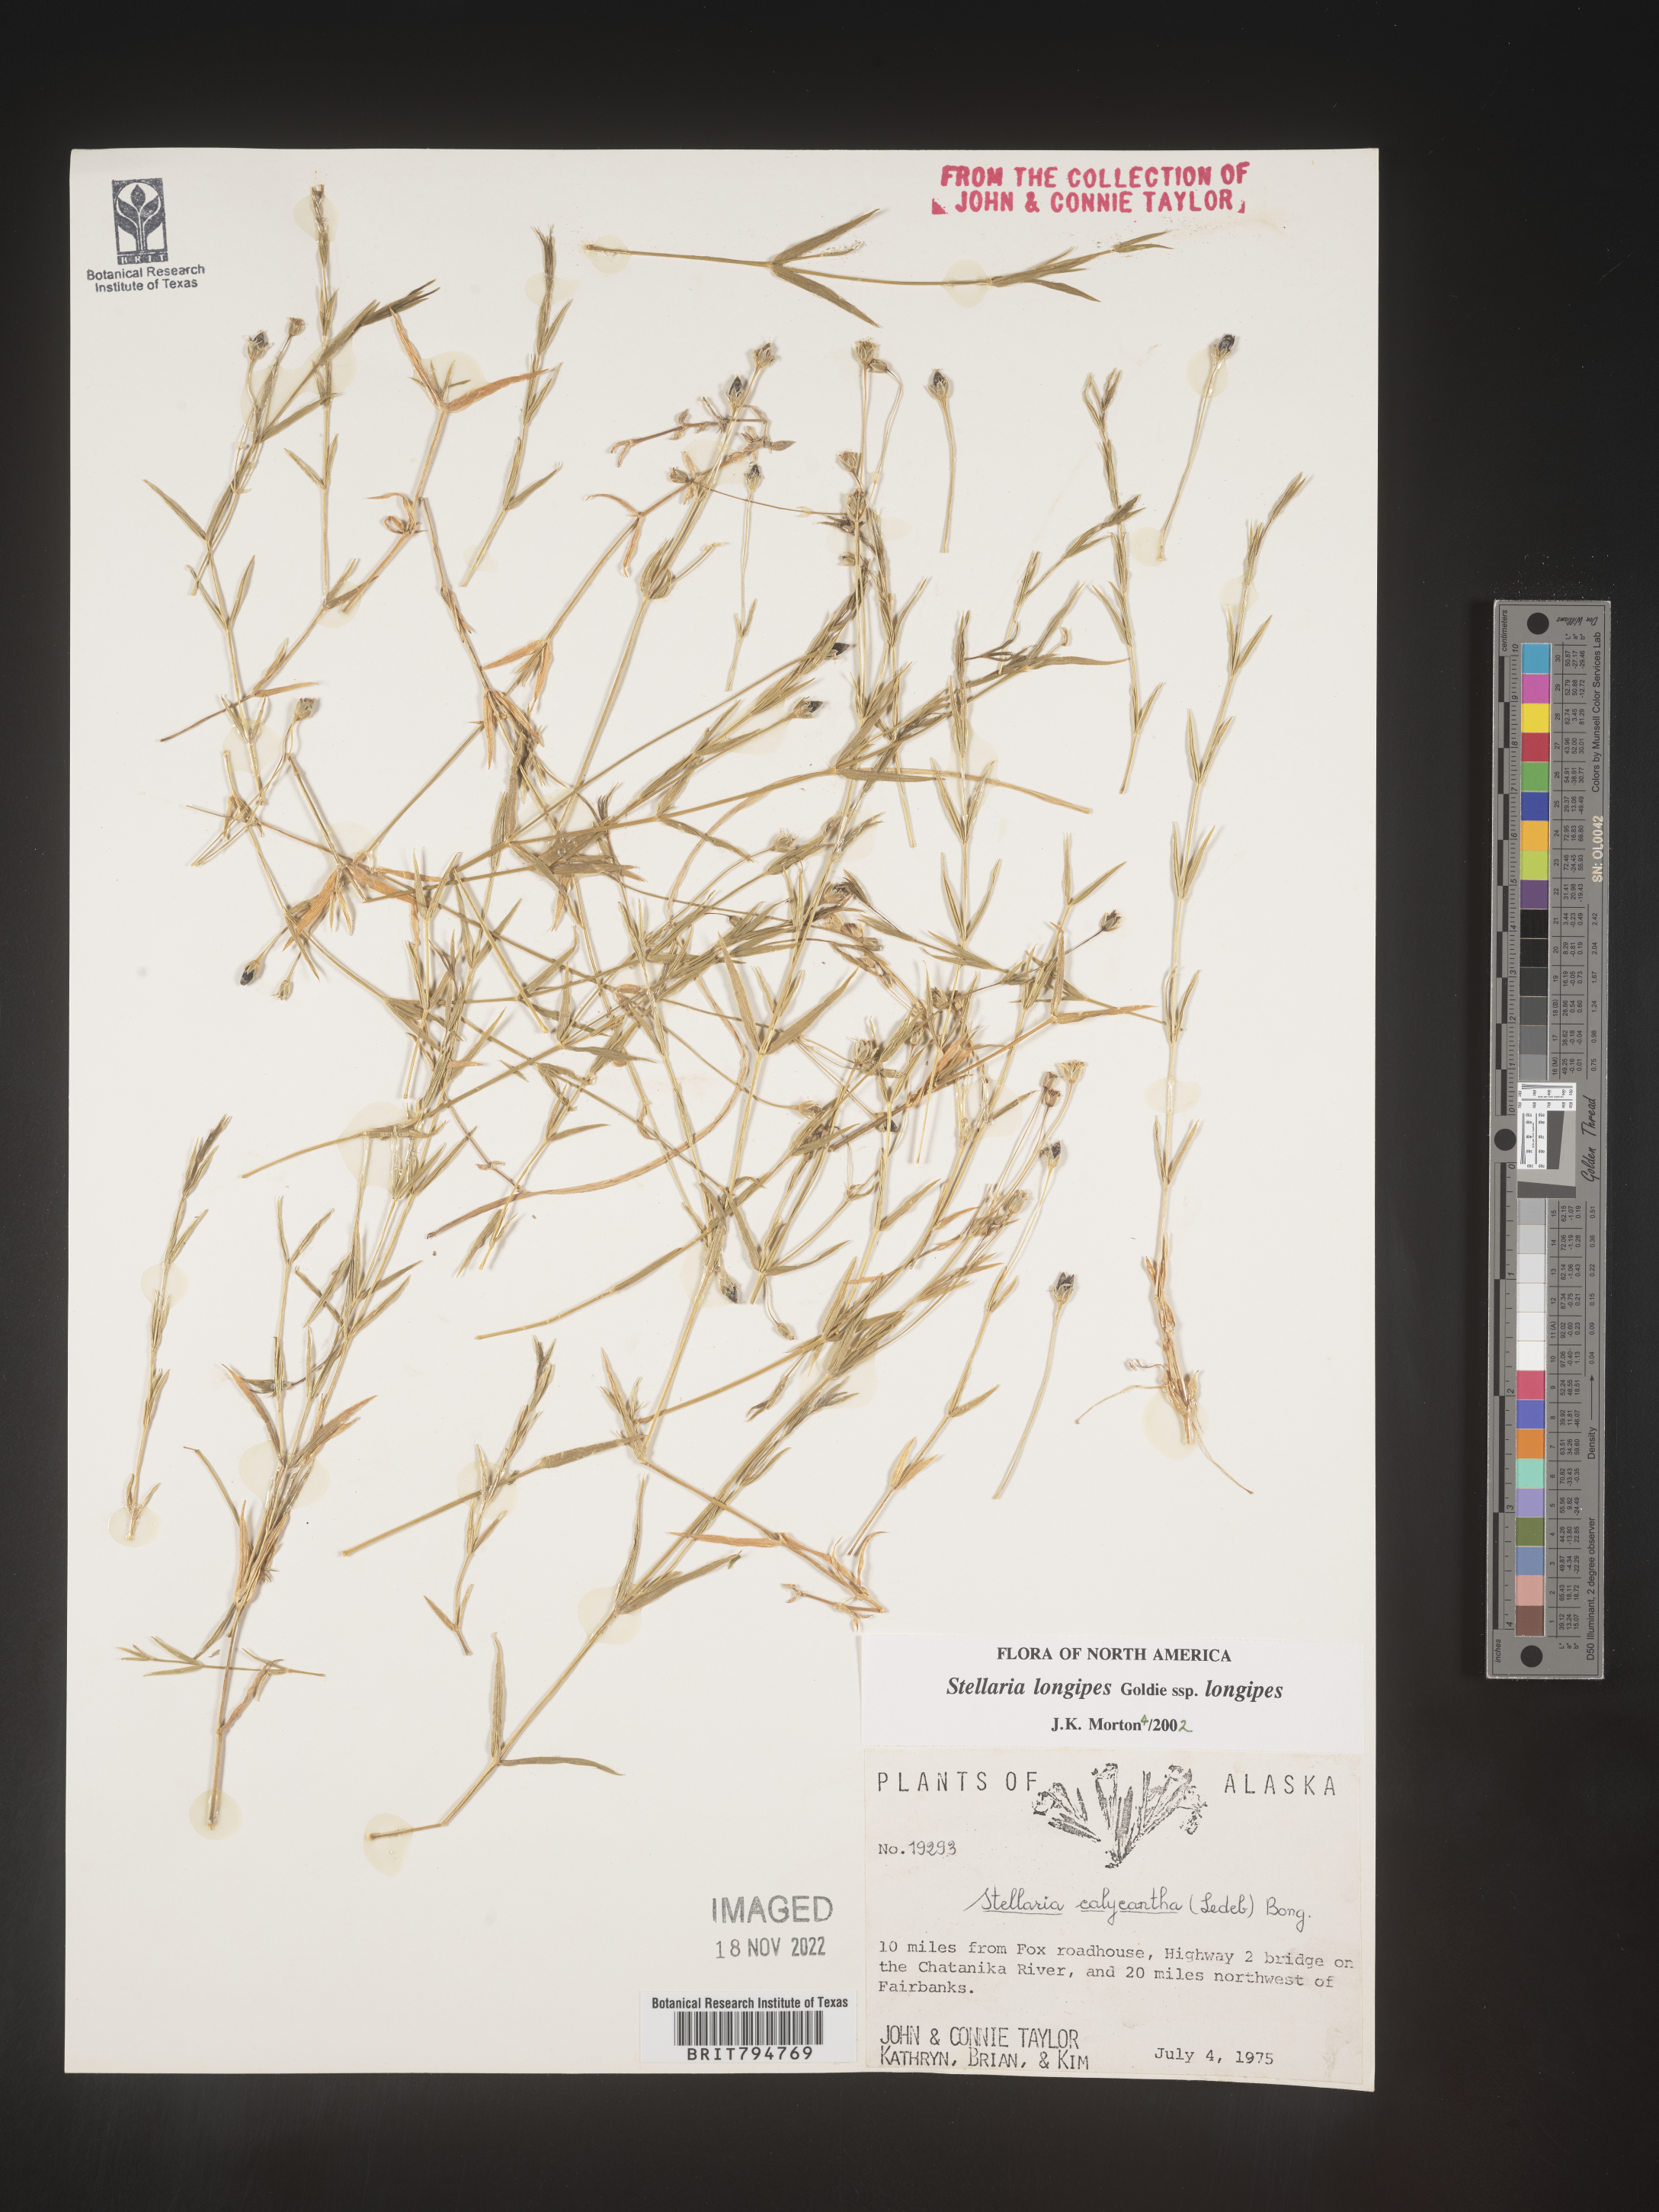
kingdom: Plantae
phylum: Tracheophyta
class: Magnoliopsida
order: Caryophyllales
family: Caryophyllaceae
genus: Stellaria
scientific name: Stellaria longipes
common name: Goldie's starwort
